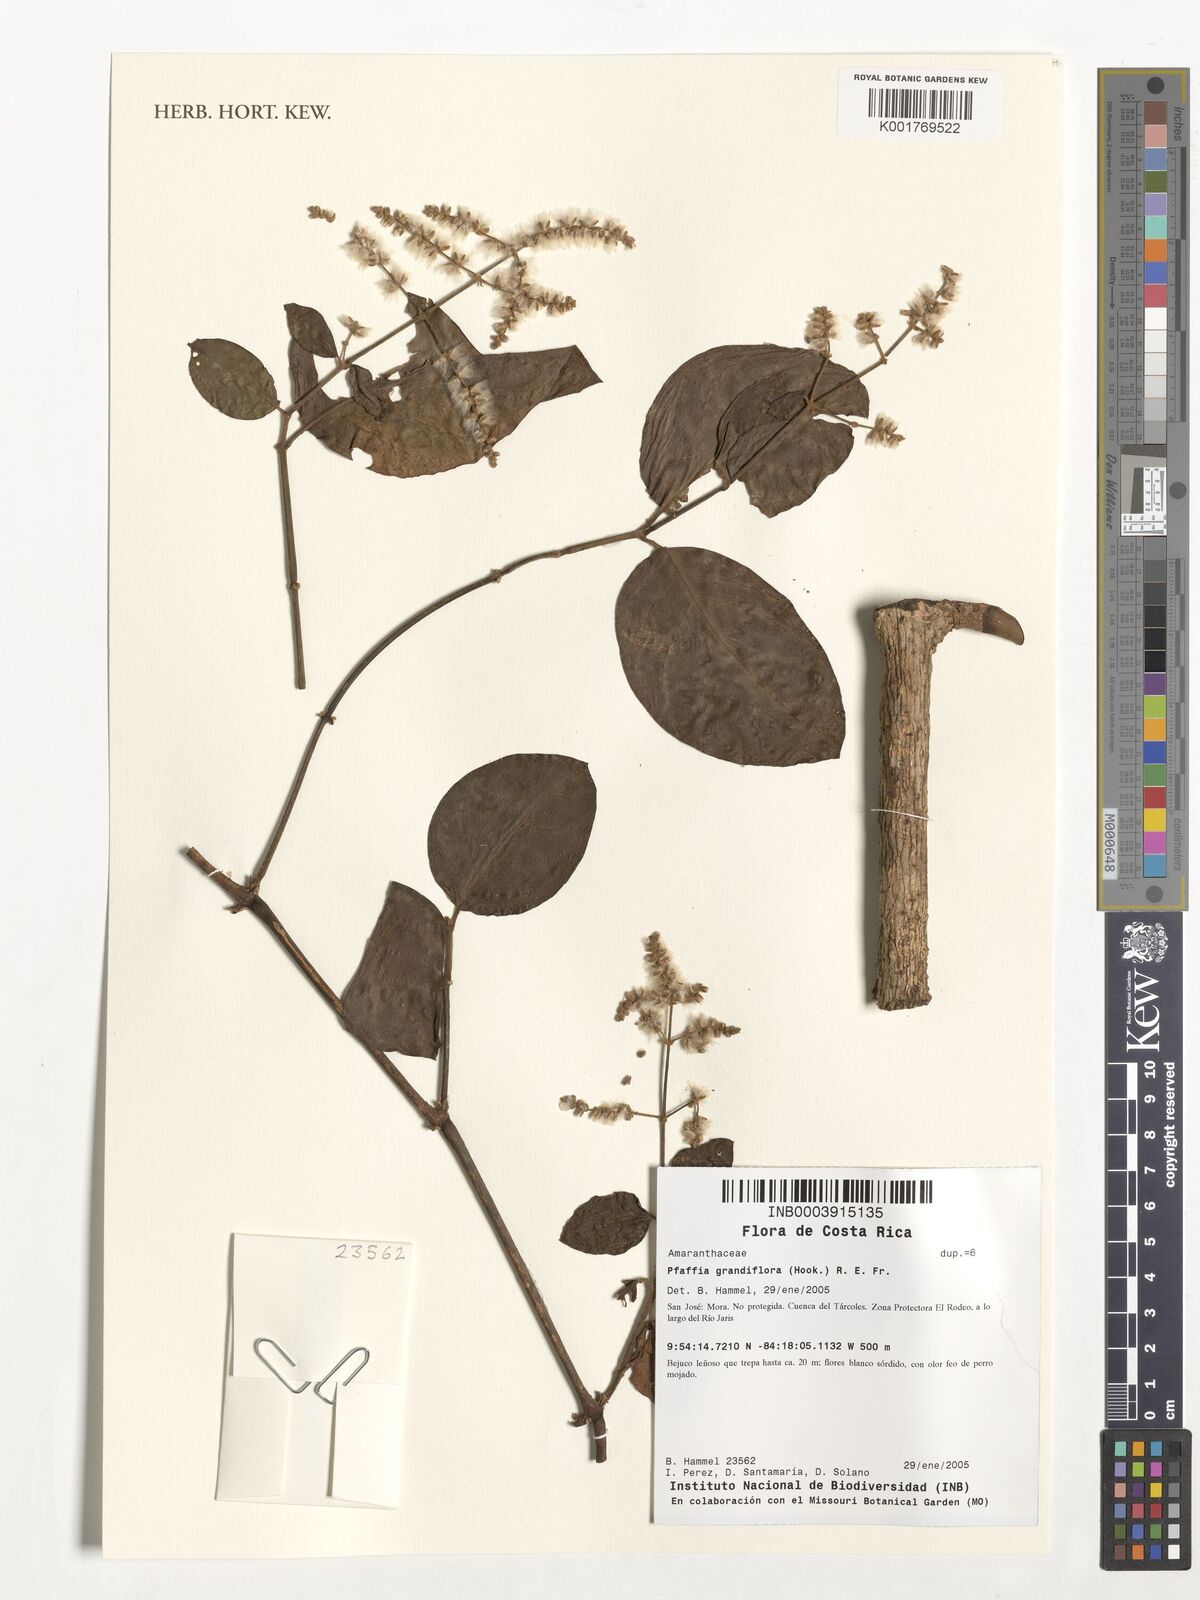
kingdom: Plantae
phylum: Tracheophyta
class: Magnoliopsida
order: Caryophyllales
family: Amaranthaceae
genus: Hebanthe
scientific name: Hebanthe grandiflora
